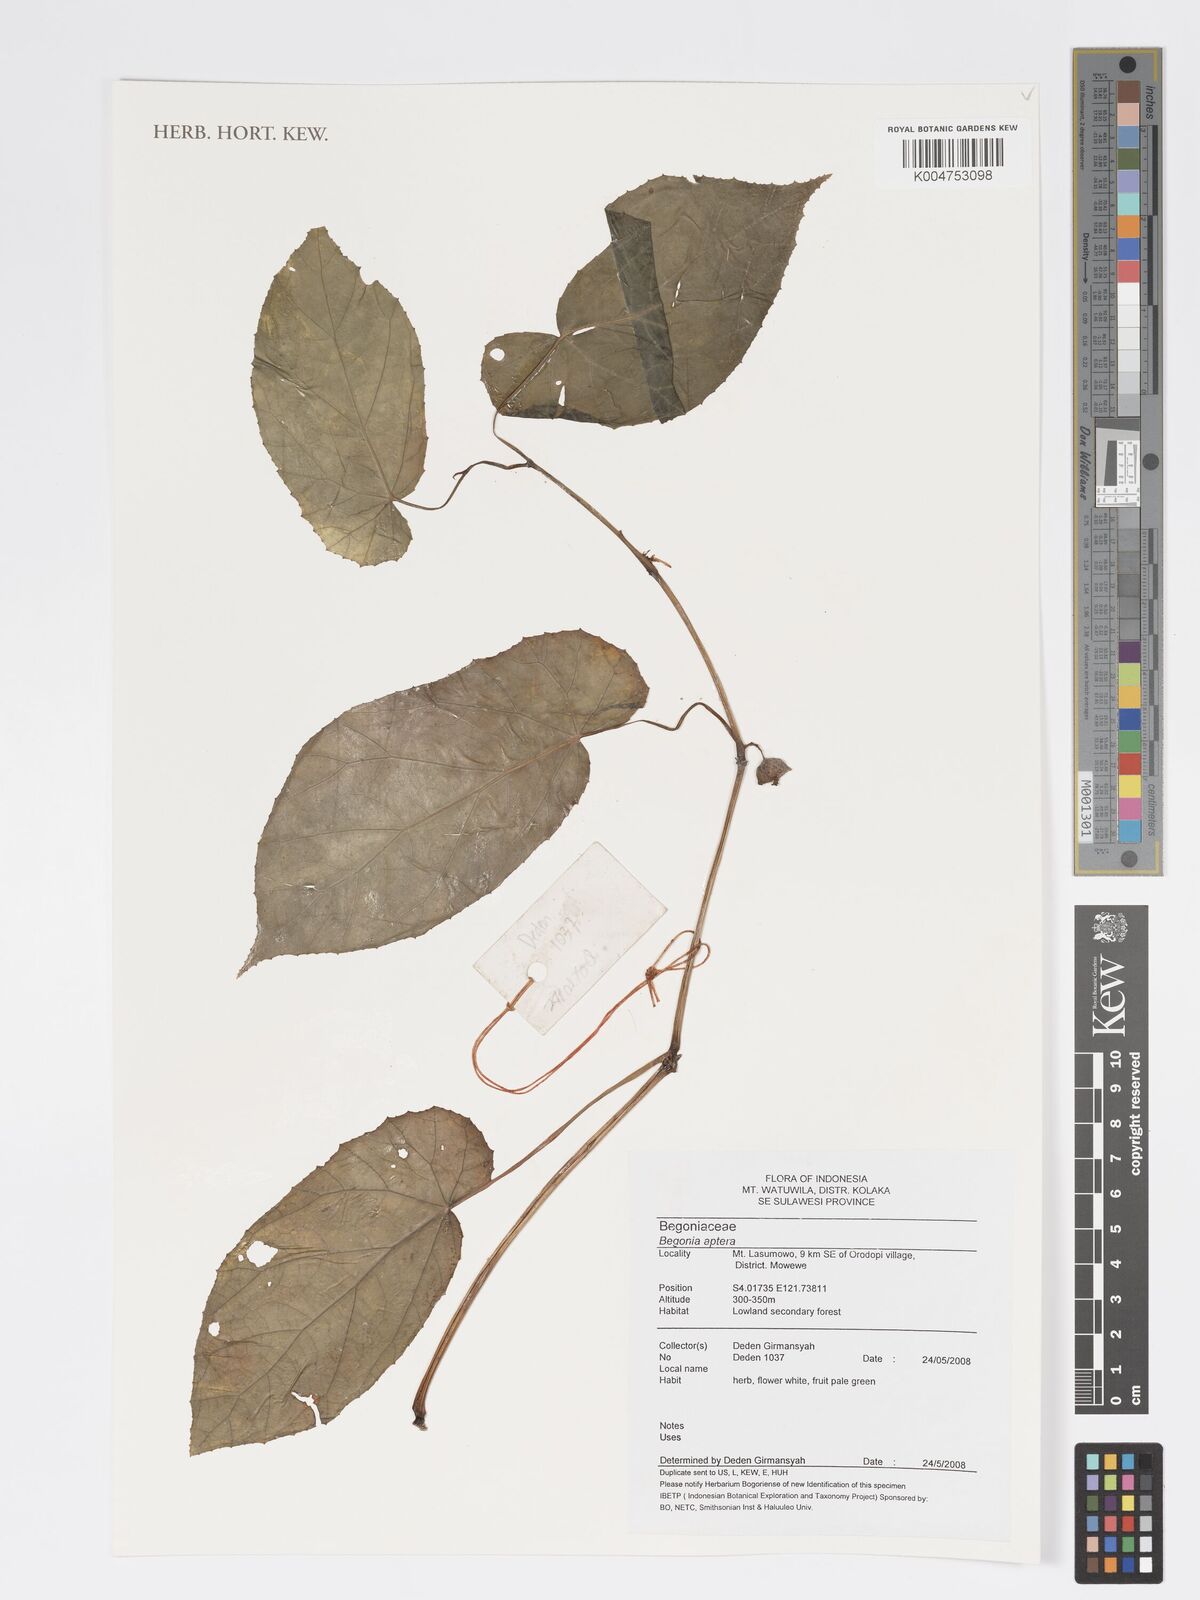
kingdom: Plantae
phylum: Tracheophyta
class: Magnoliopsida
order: Cucurbitales
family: Begoniaceae
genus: Begonia
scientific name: Begonia
